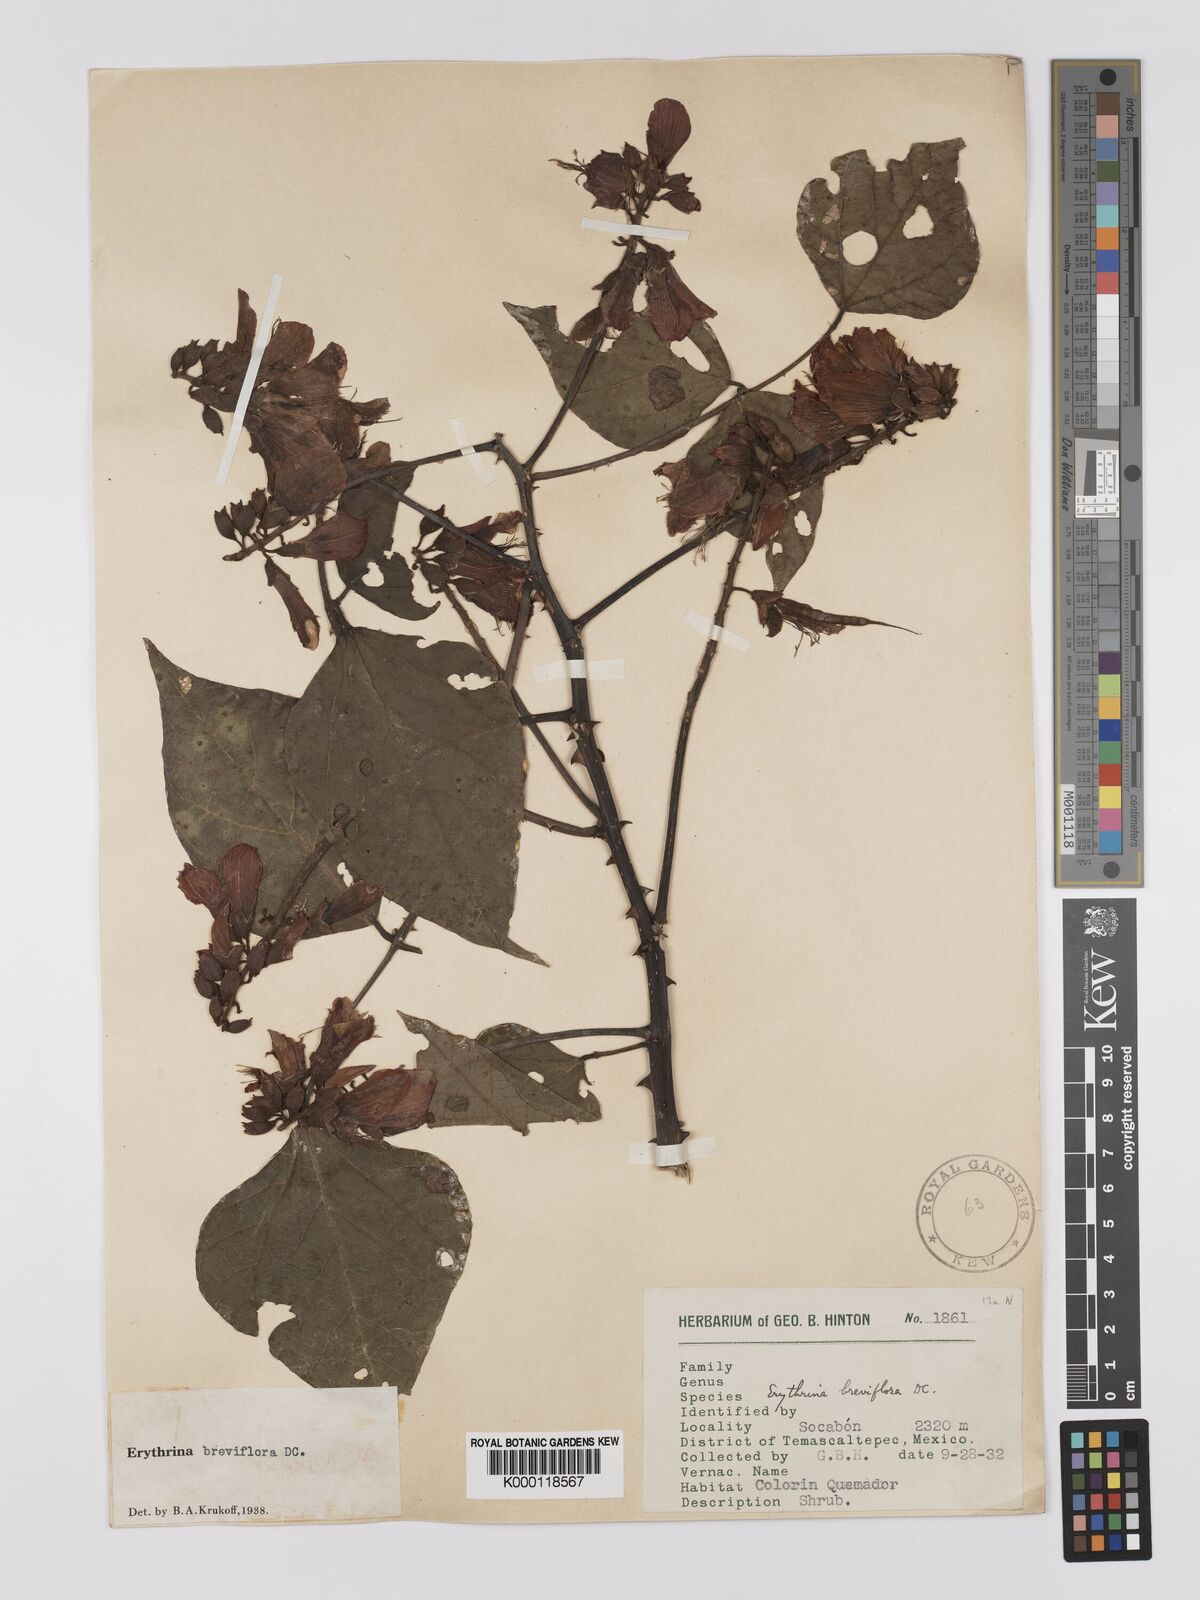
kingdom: Plantae
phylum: Tracheophyta
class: Magnoliopsida
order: Fabales
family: Fabaceae
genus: Erythrina
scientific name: Erythrina breviflora
